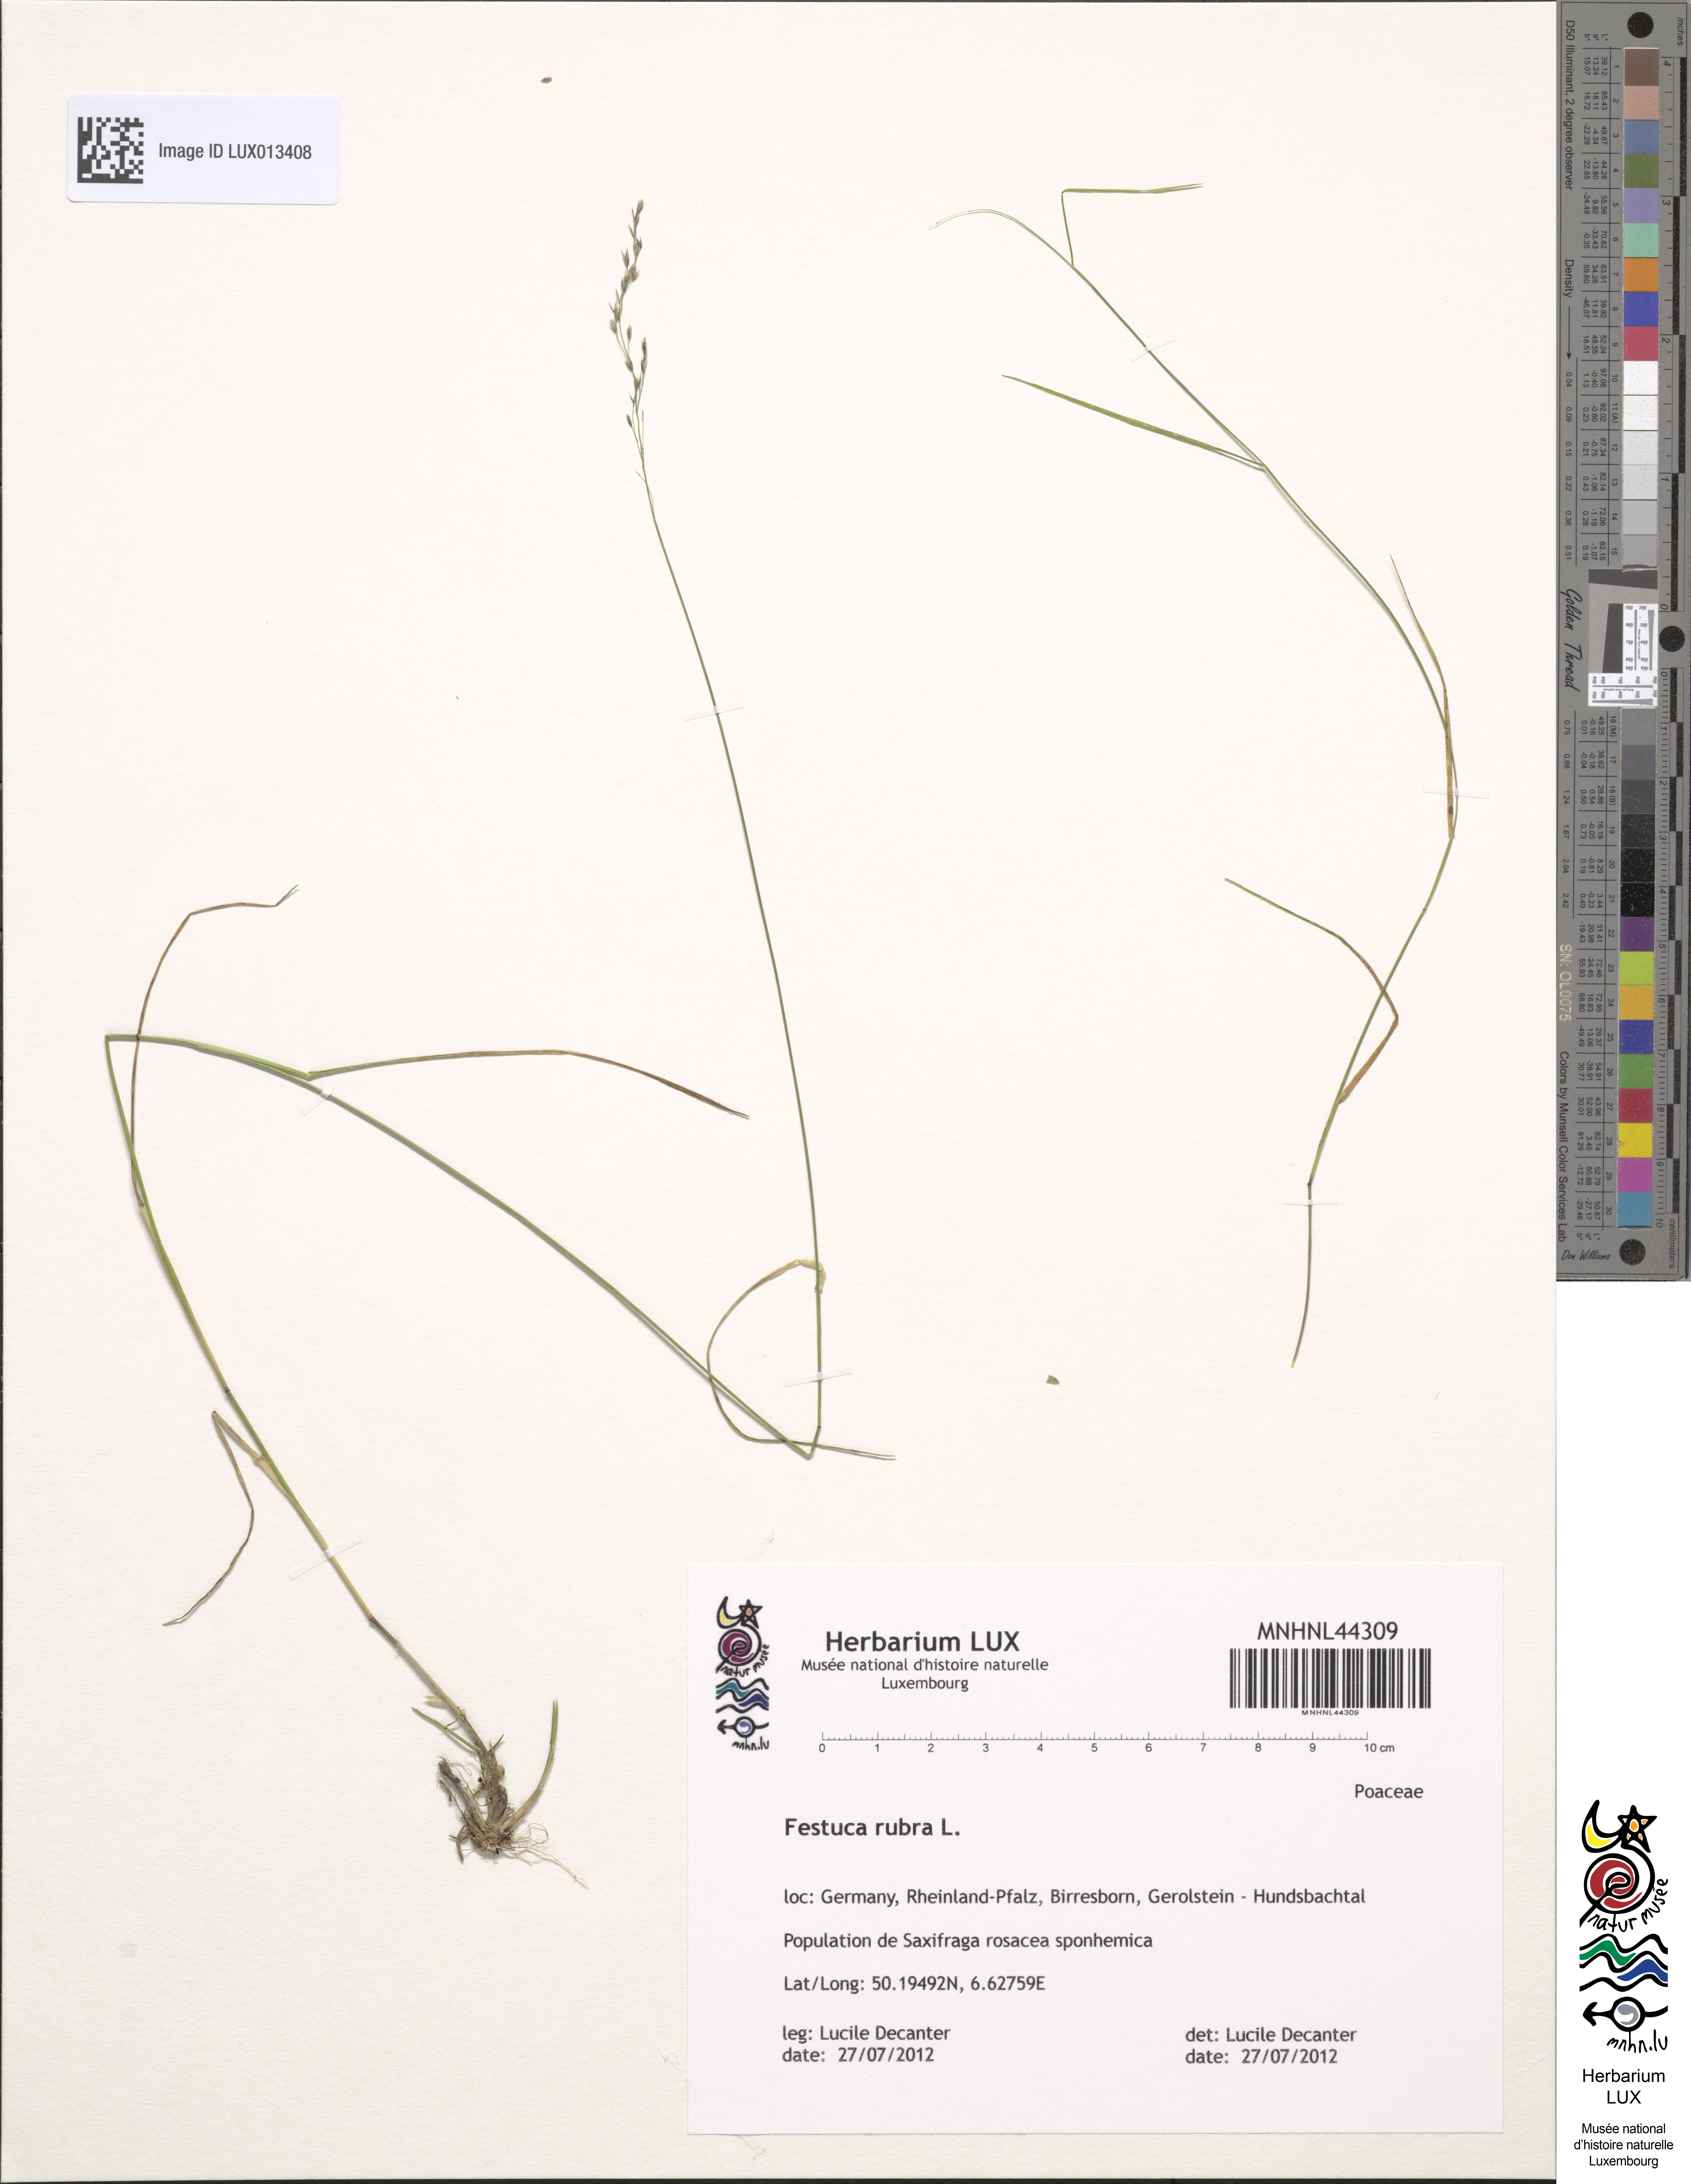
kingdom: Plantae
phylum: Tracheophyta
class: Liliopsida
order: Poales
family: Poaceae
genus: Festuca
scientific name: Festuca rubra
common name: Red fescue
